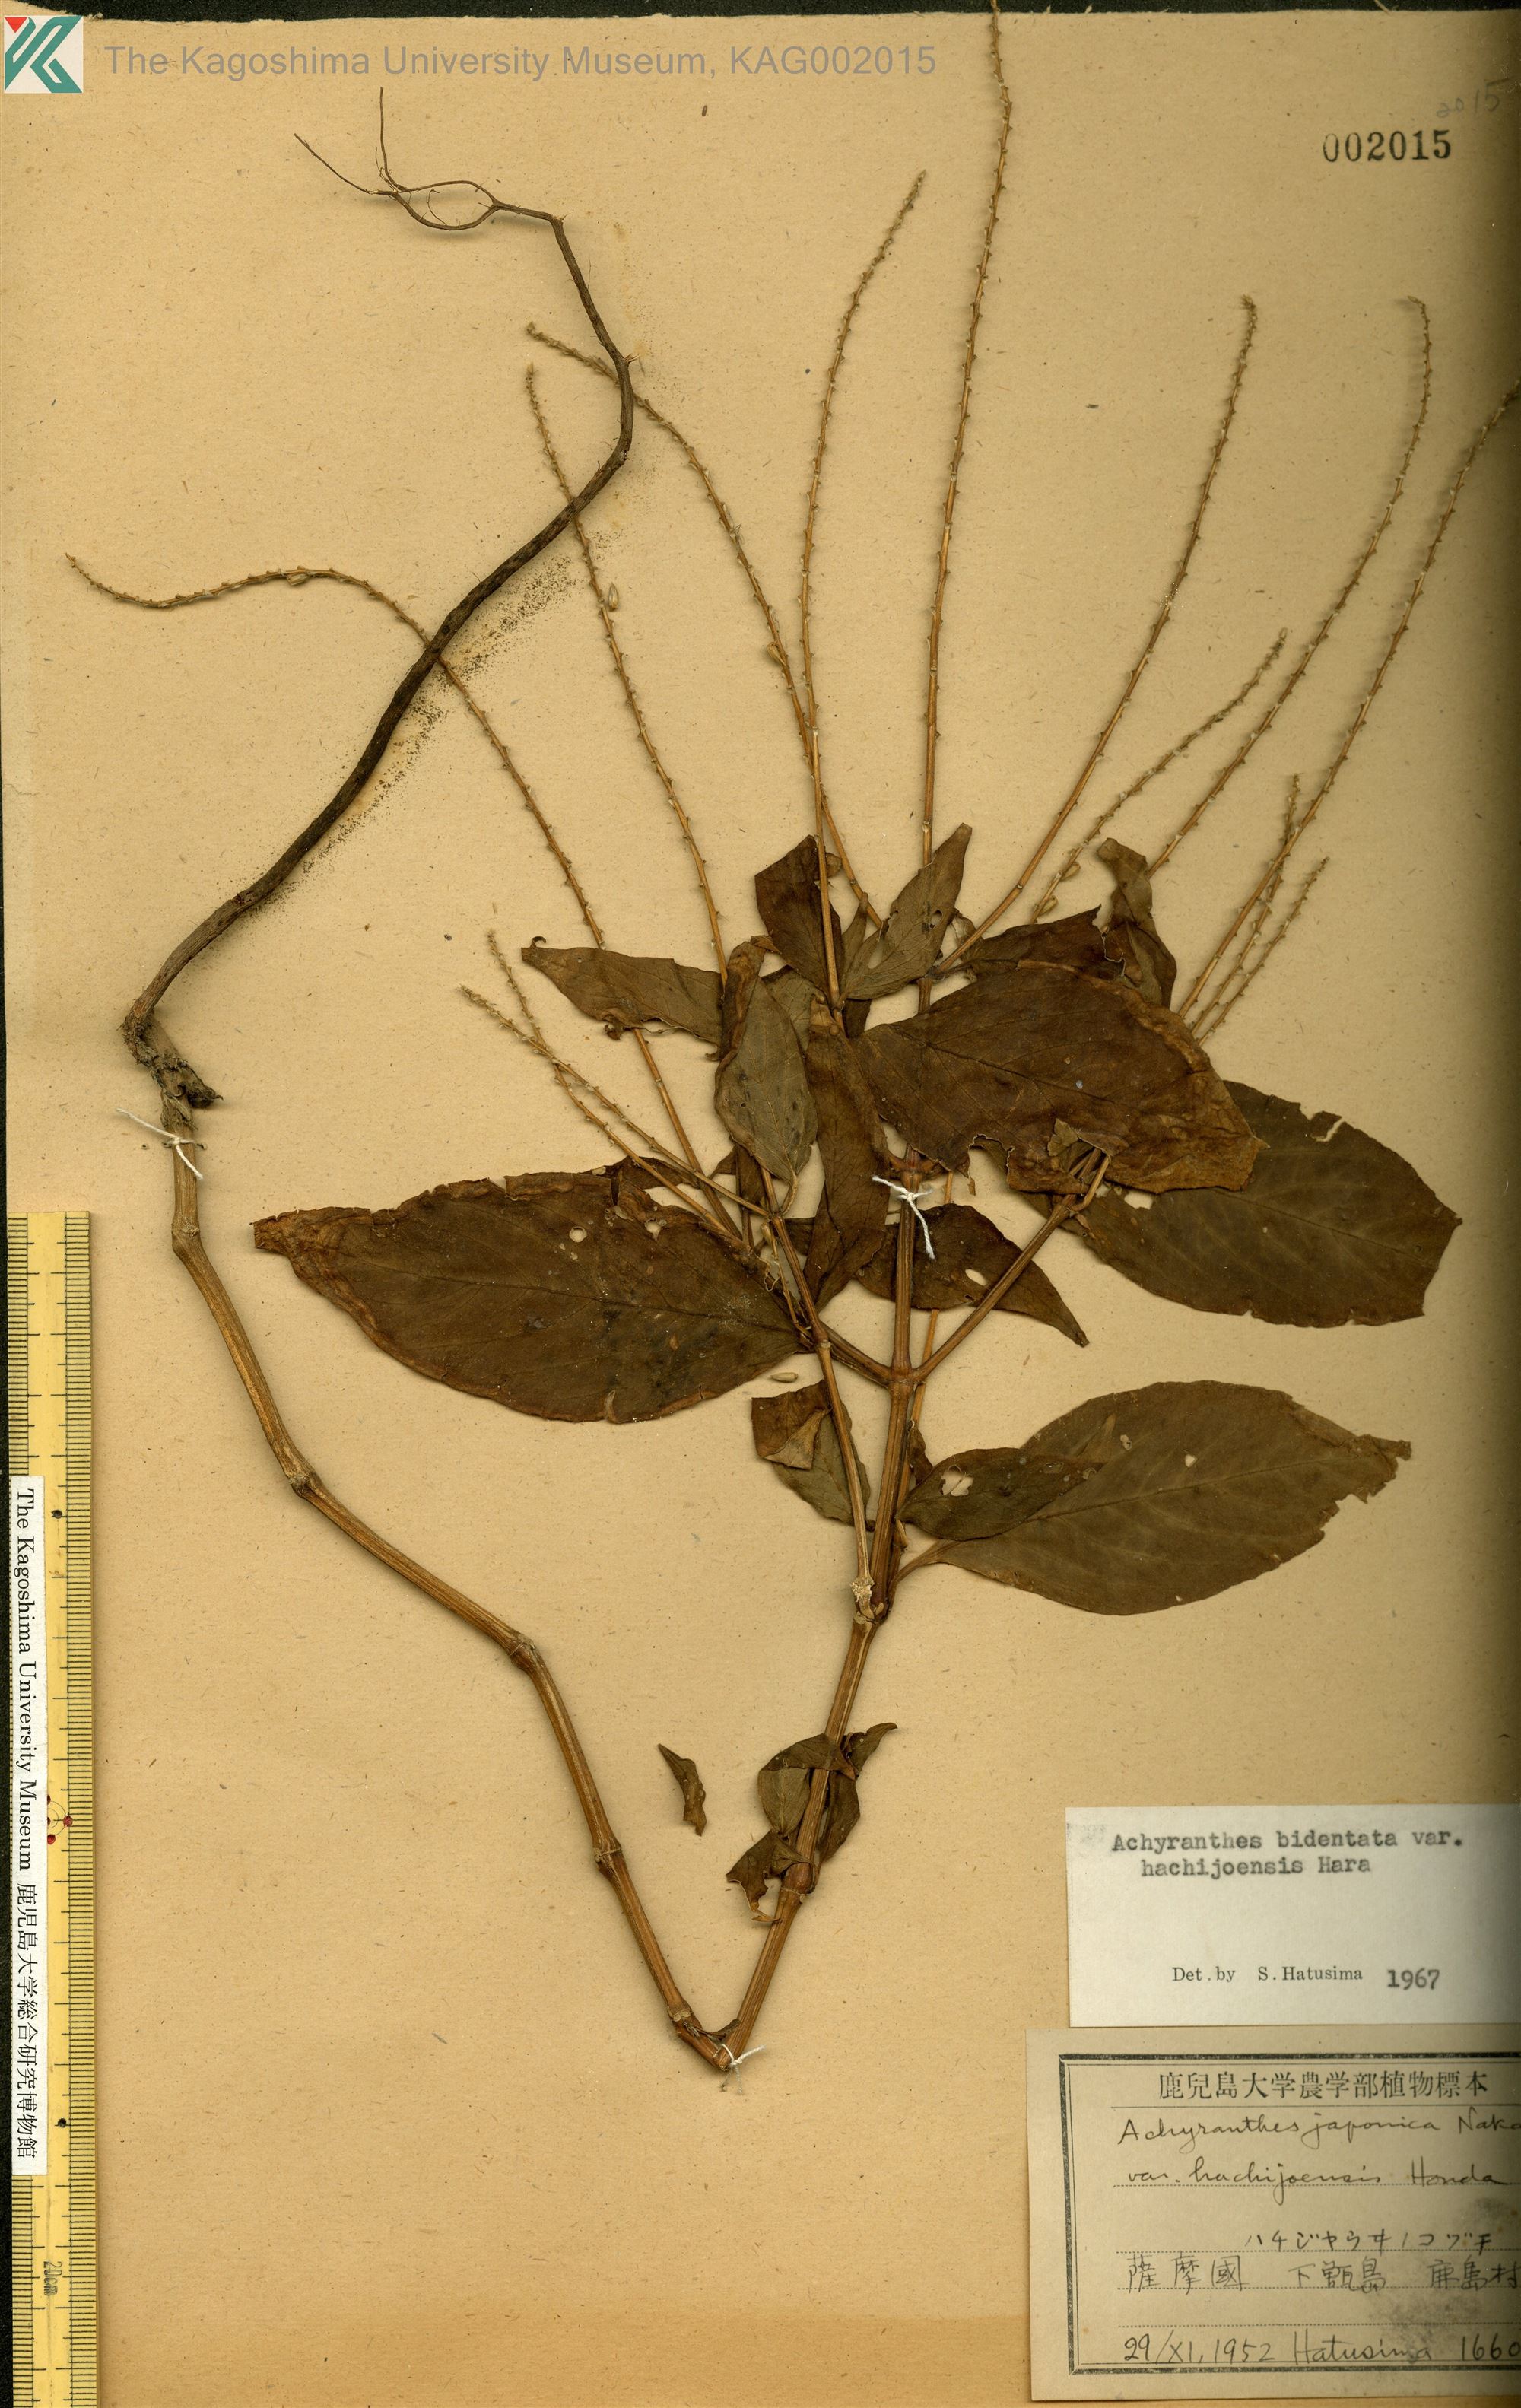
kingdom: Plantae
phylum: Tracheophyta
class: Magnoliopsida
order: Caryophyllales
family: Amaranthaceae
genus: Achyranthes
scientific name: Achyranthes bidentata
